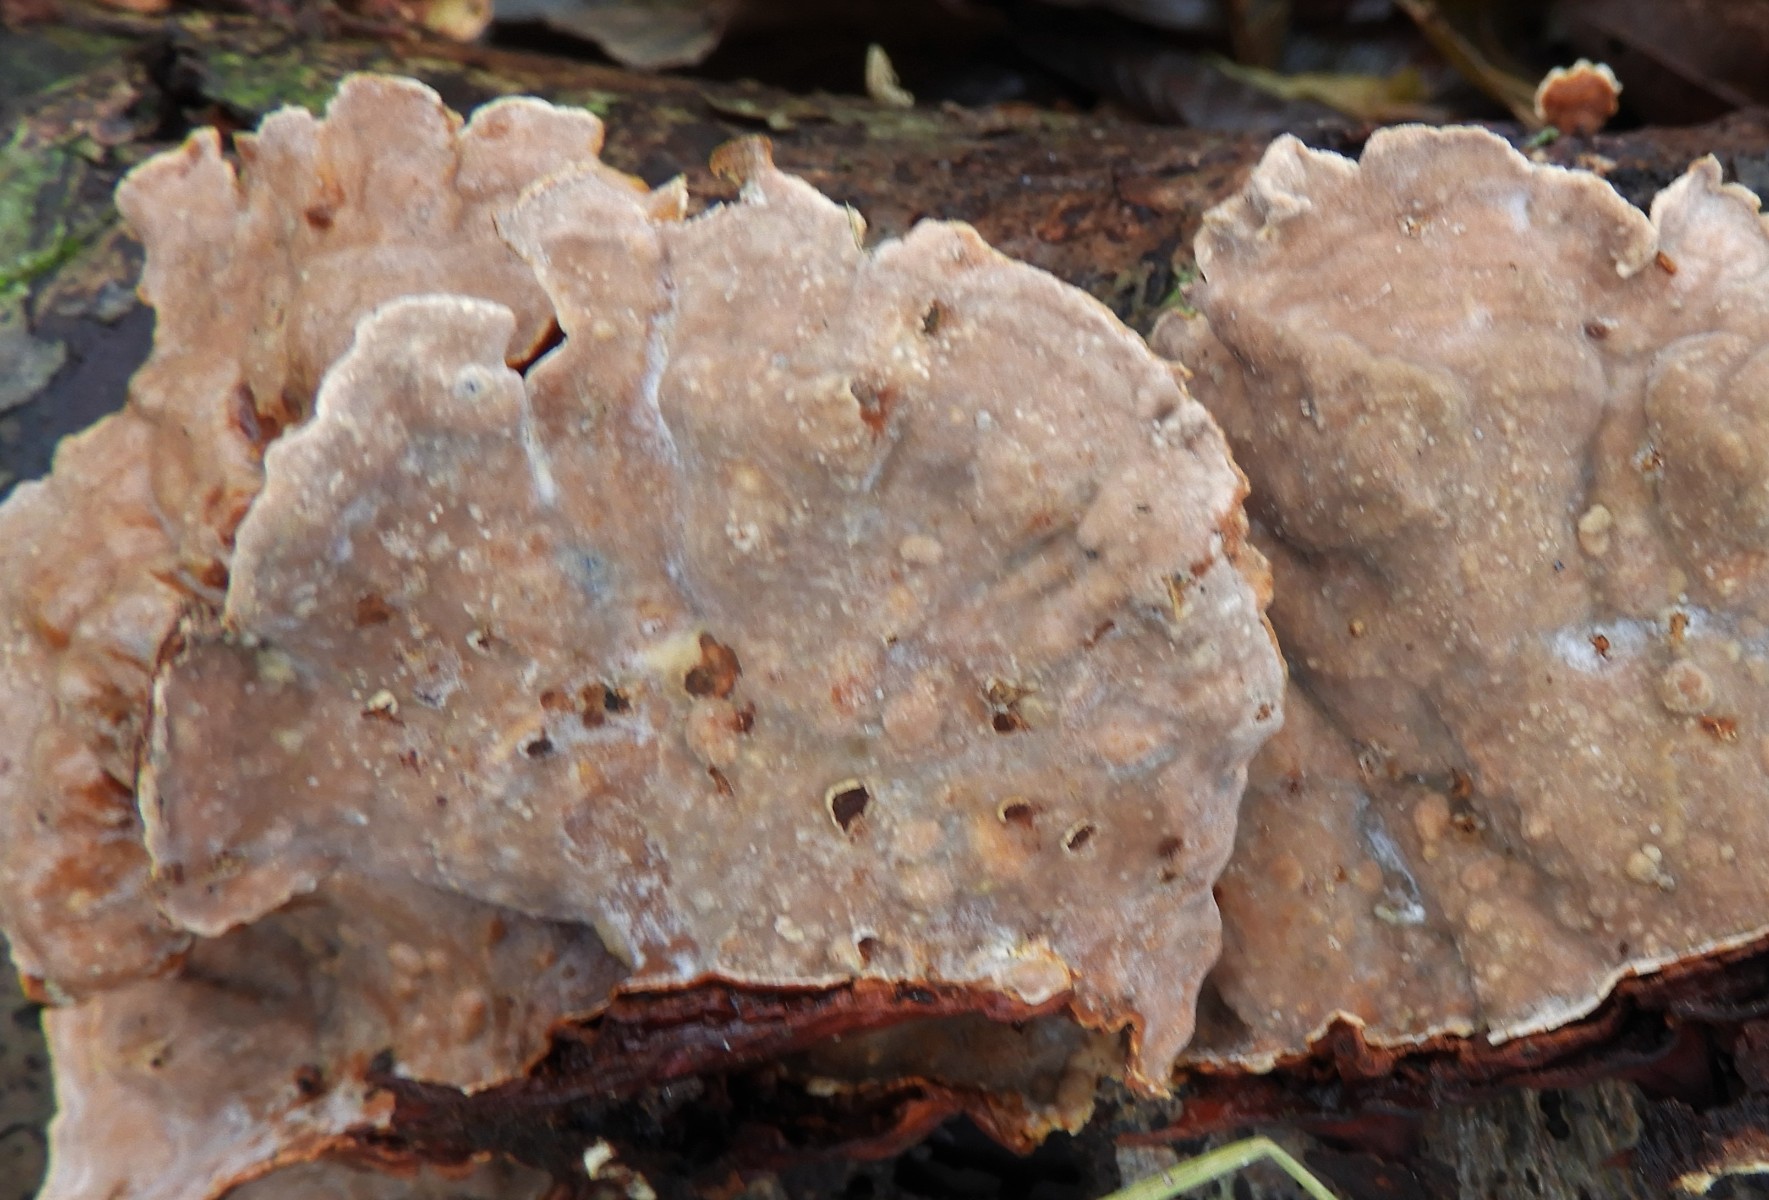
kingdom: Fungi
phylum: Basidiomycota
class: Agaricomycetes
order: Russulales
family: Stereaceae
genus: Stereum
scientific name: Stereum subtomentosum
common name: smuk lædersvamp
